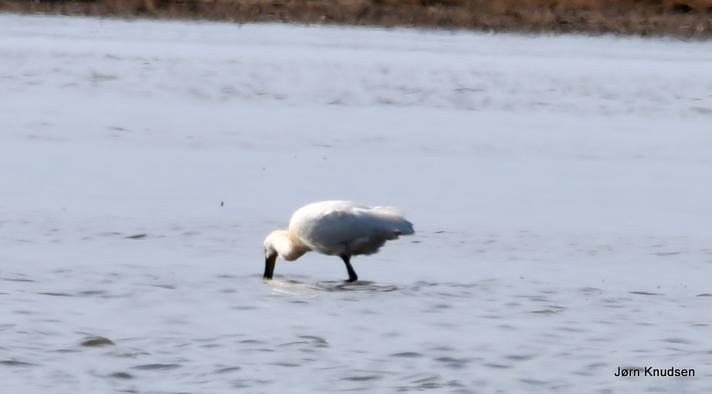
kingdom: Animalia
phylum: Chordata
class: Aves
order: Pelecaniformes
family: Threskiornithidae
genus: Platalea
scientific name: Platalea leucorodia
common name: Skestork
